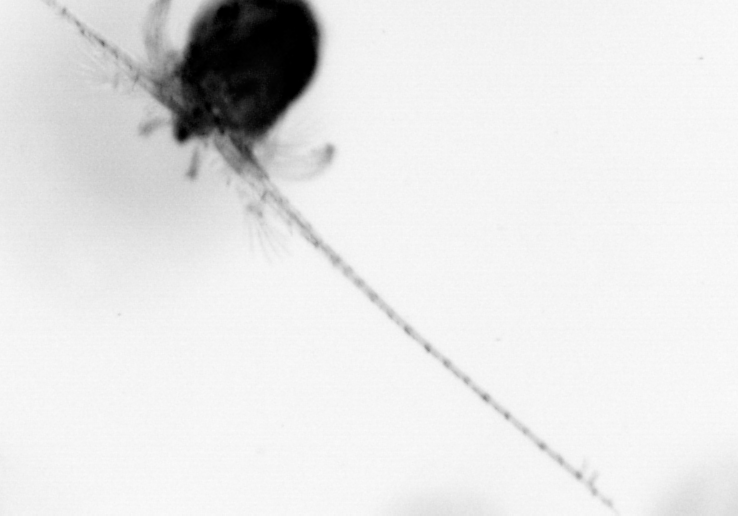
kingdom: Animalia
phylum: Arthropoda
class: Copepoda
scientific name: Copepoda
